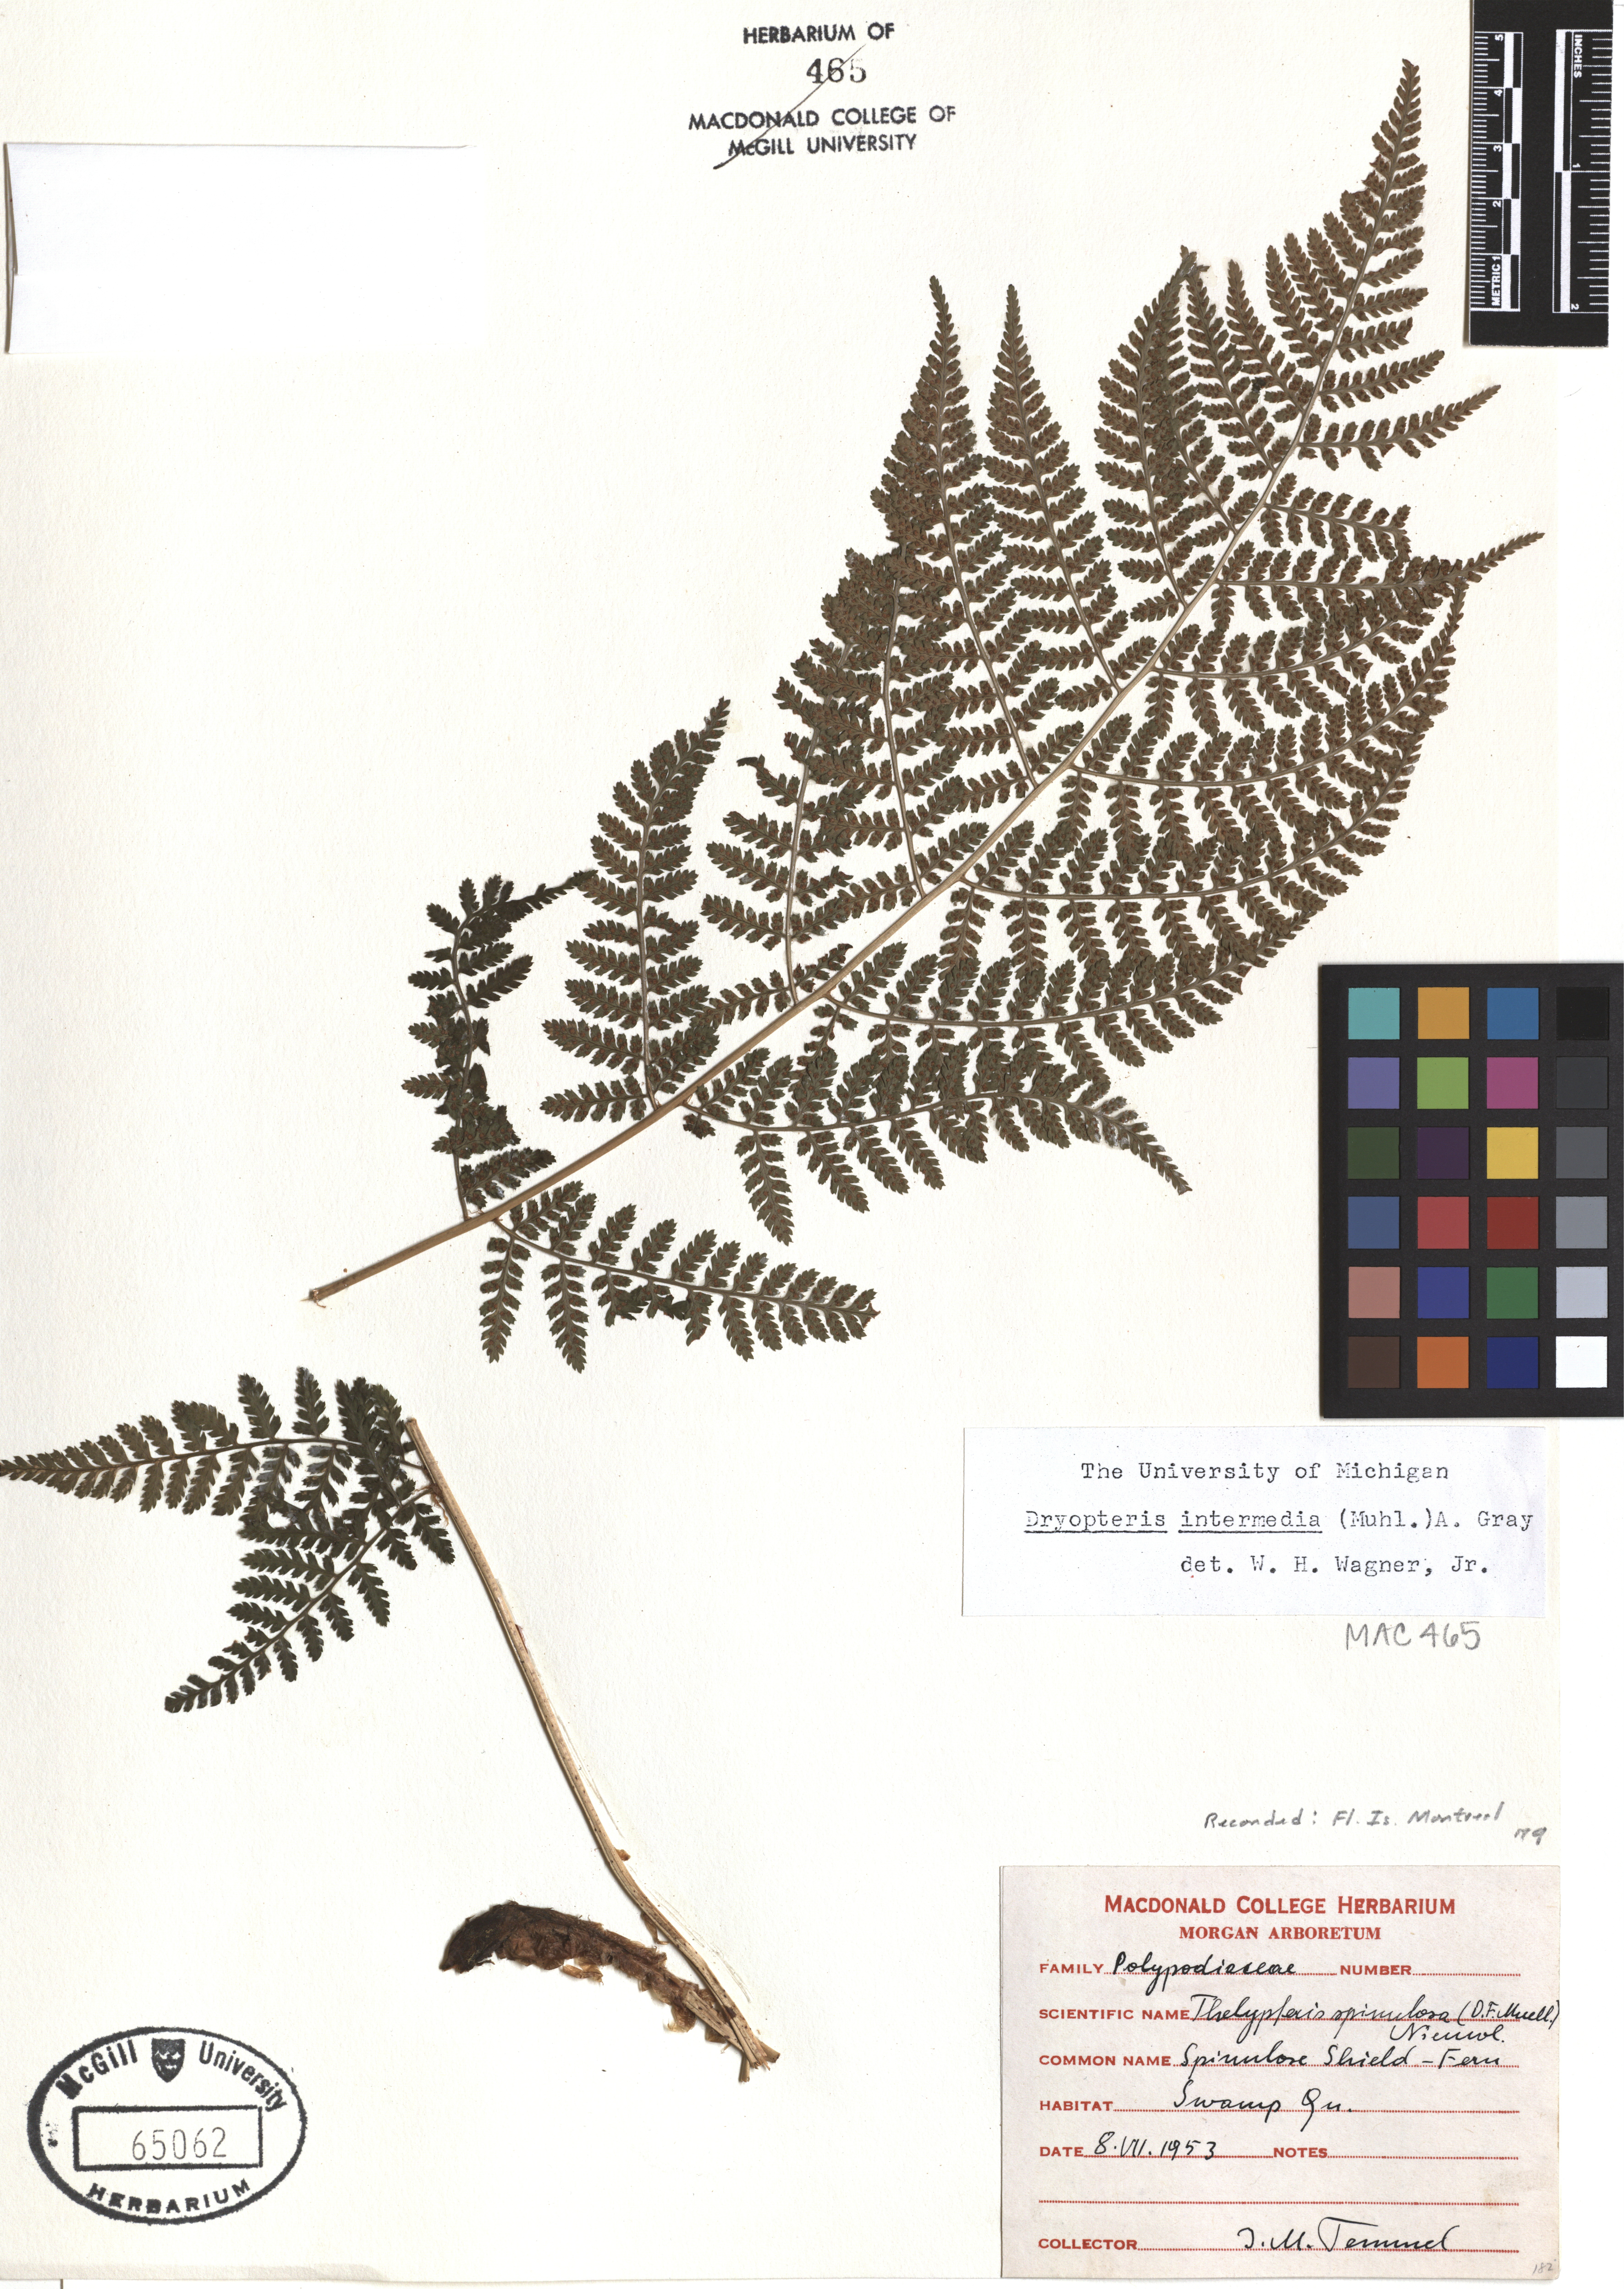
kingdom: Plantae
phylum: Tracheophyta
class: Polypodiopsida
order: Polypodiales
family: Dryopteridaceae
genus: Dryopteris
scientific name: Dryopteris intermedia
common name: Evergreen wood fern
